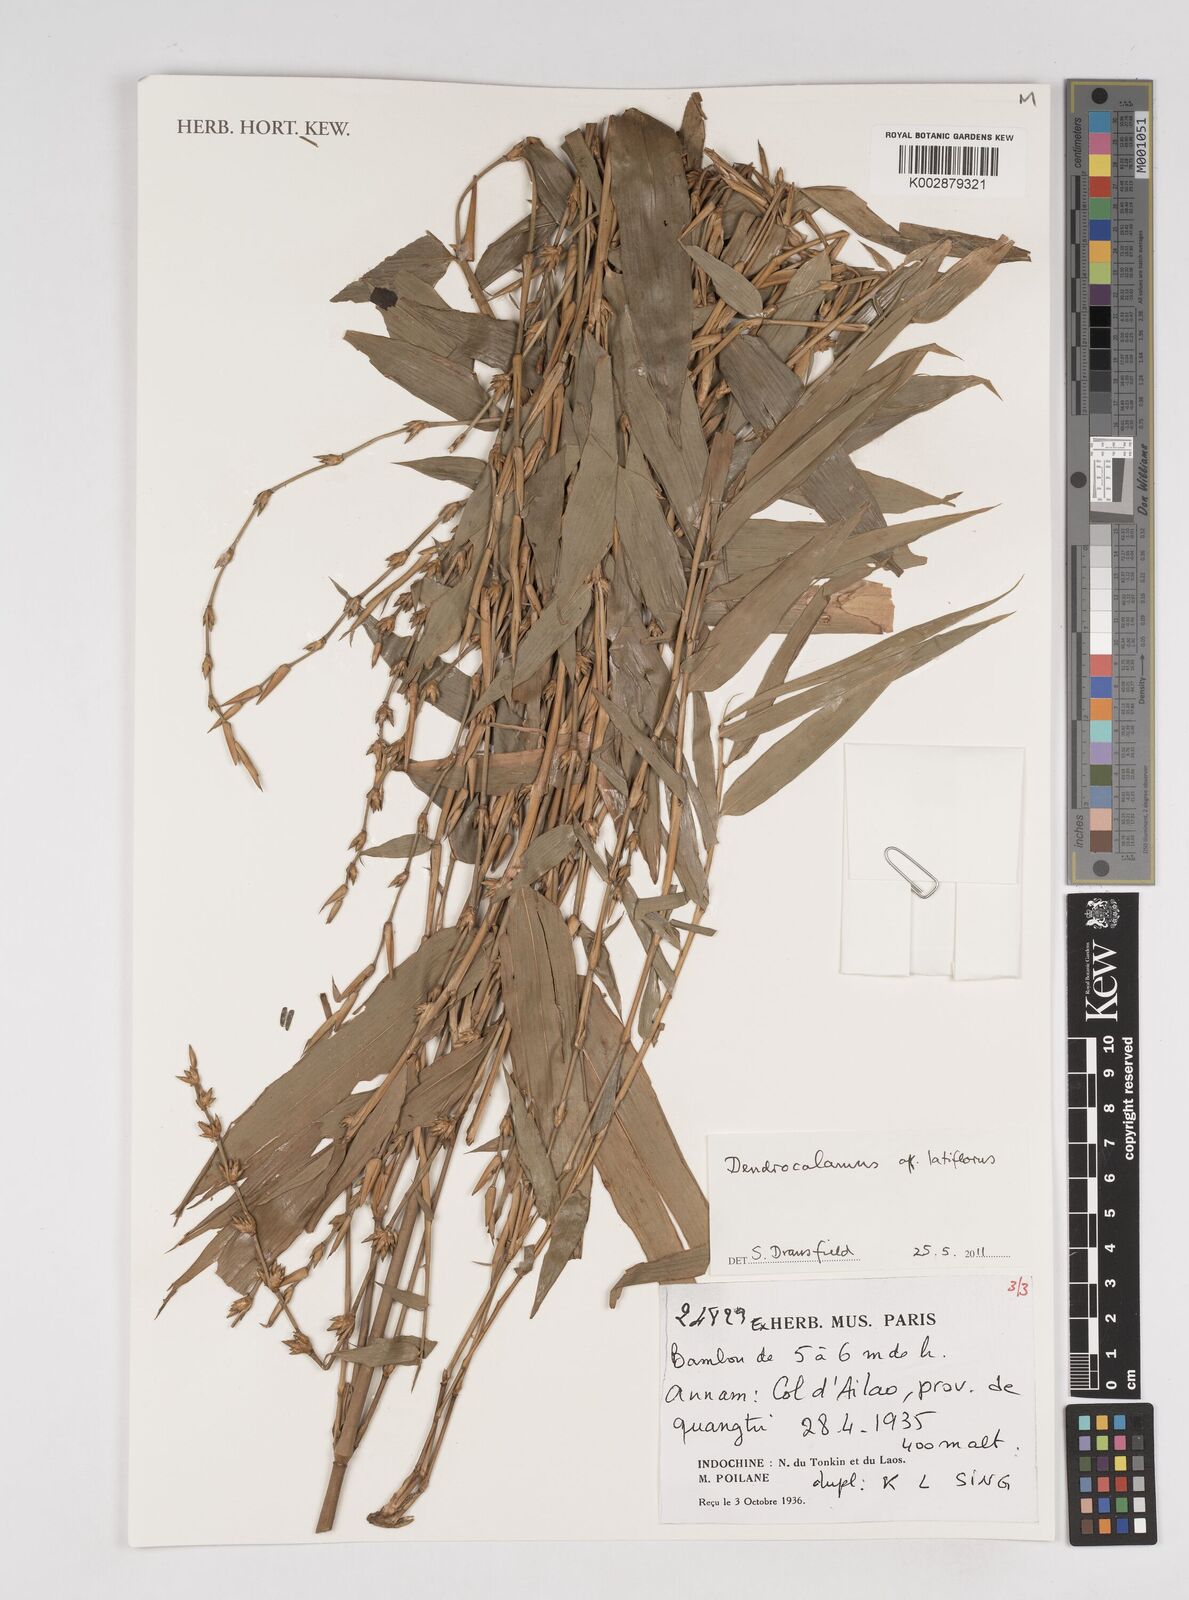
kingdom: Plantae
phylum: Tracheophyta
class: Liliopsida
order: Poales
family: Poaceae
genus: Dendrocalamus
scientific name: Dendrocalamus latiflorus
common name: Giant bamboo
